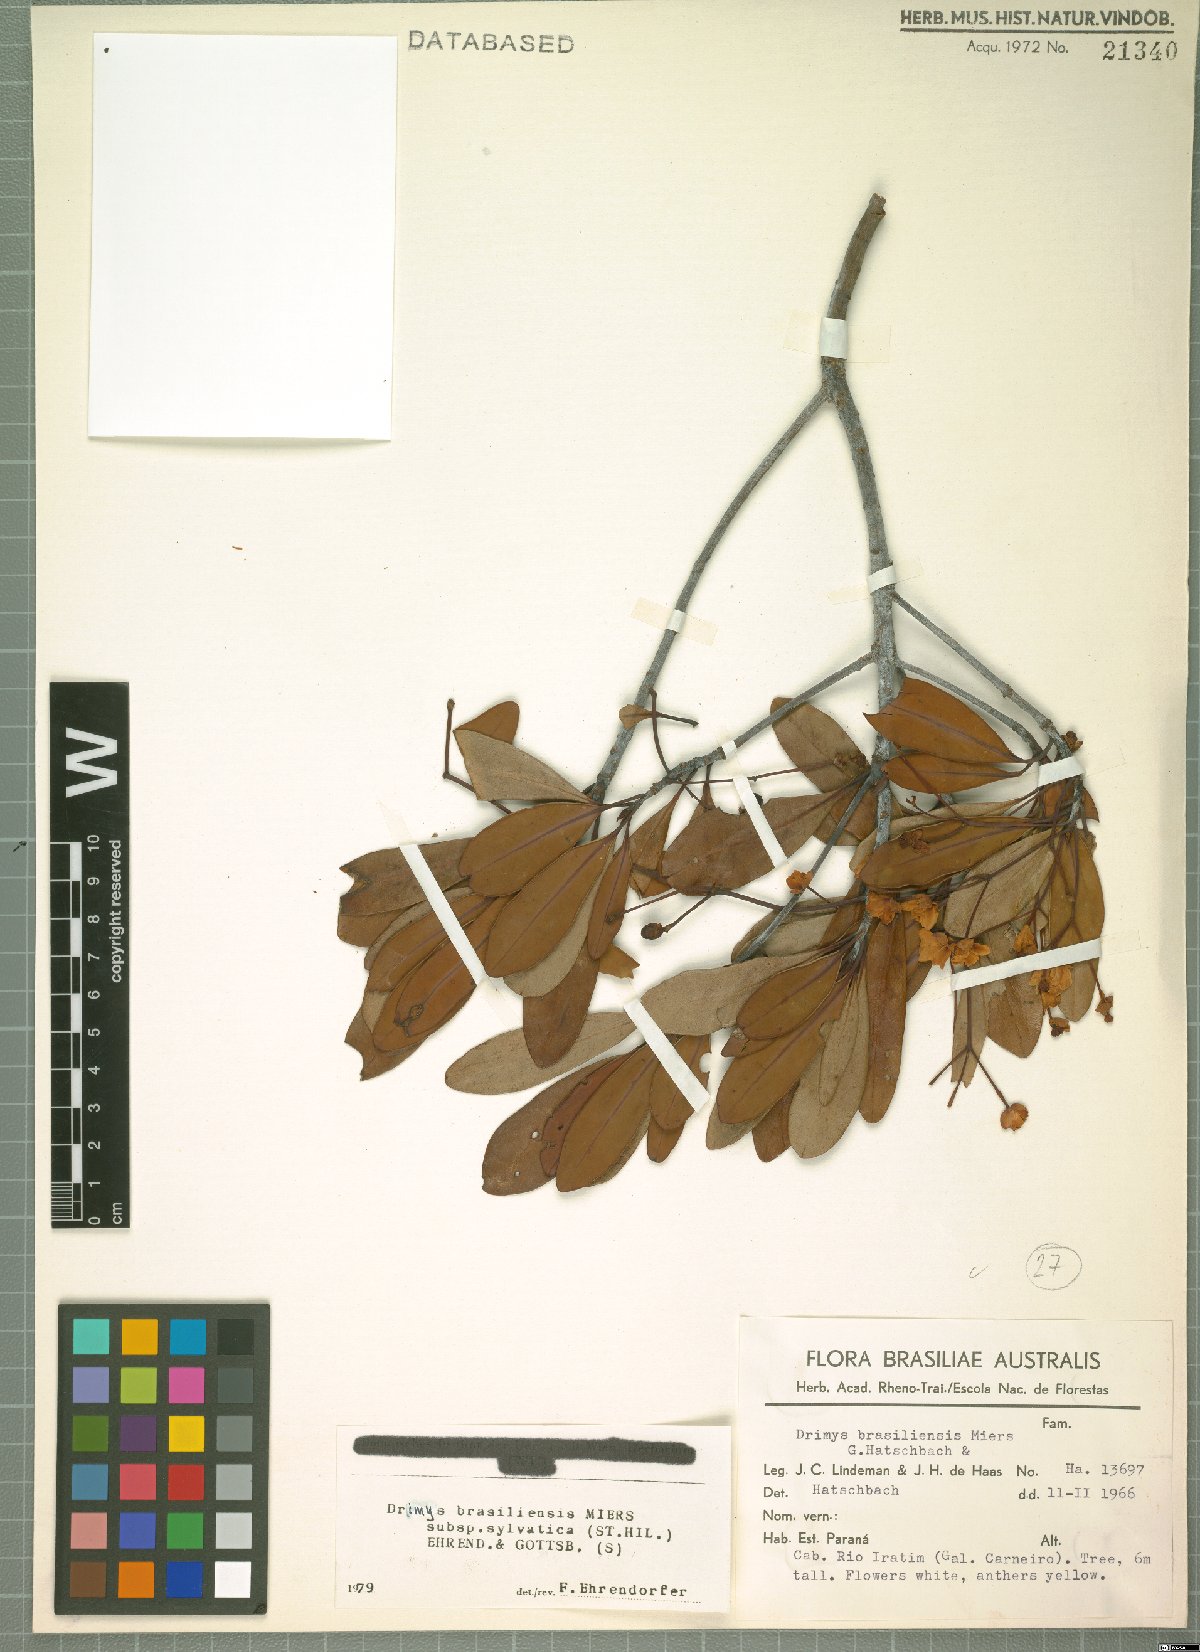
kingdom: Plantae
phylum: Tracheophyta
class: Magnoliopsida
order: Canellales
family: Winteraceae
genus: Drimys
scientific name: Drimys brasiliensis
